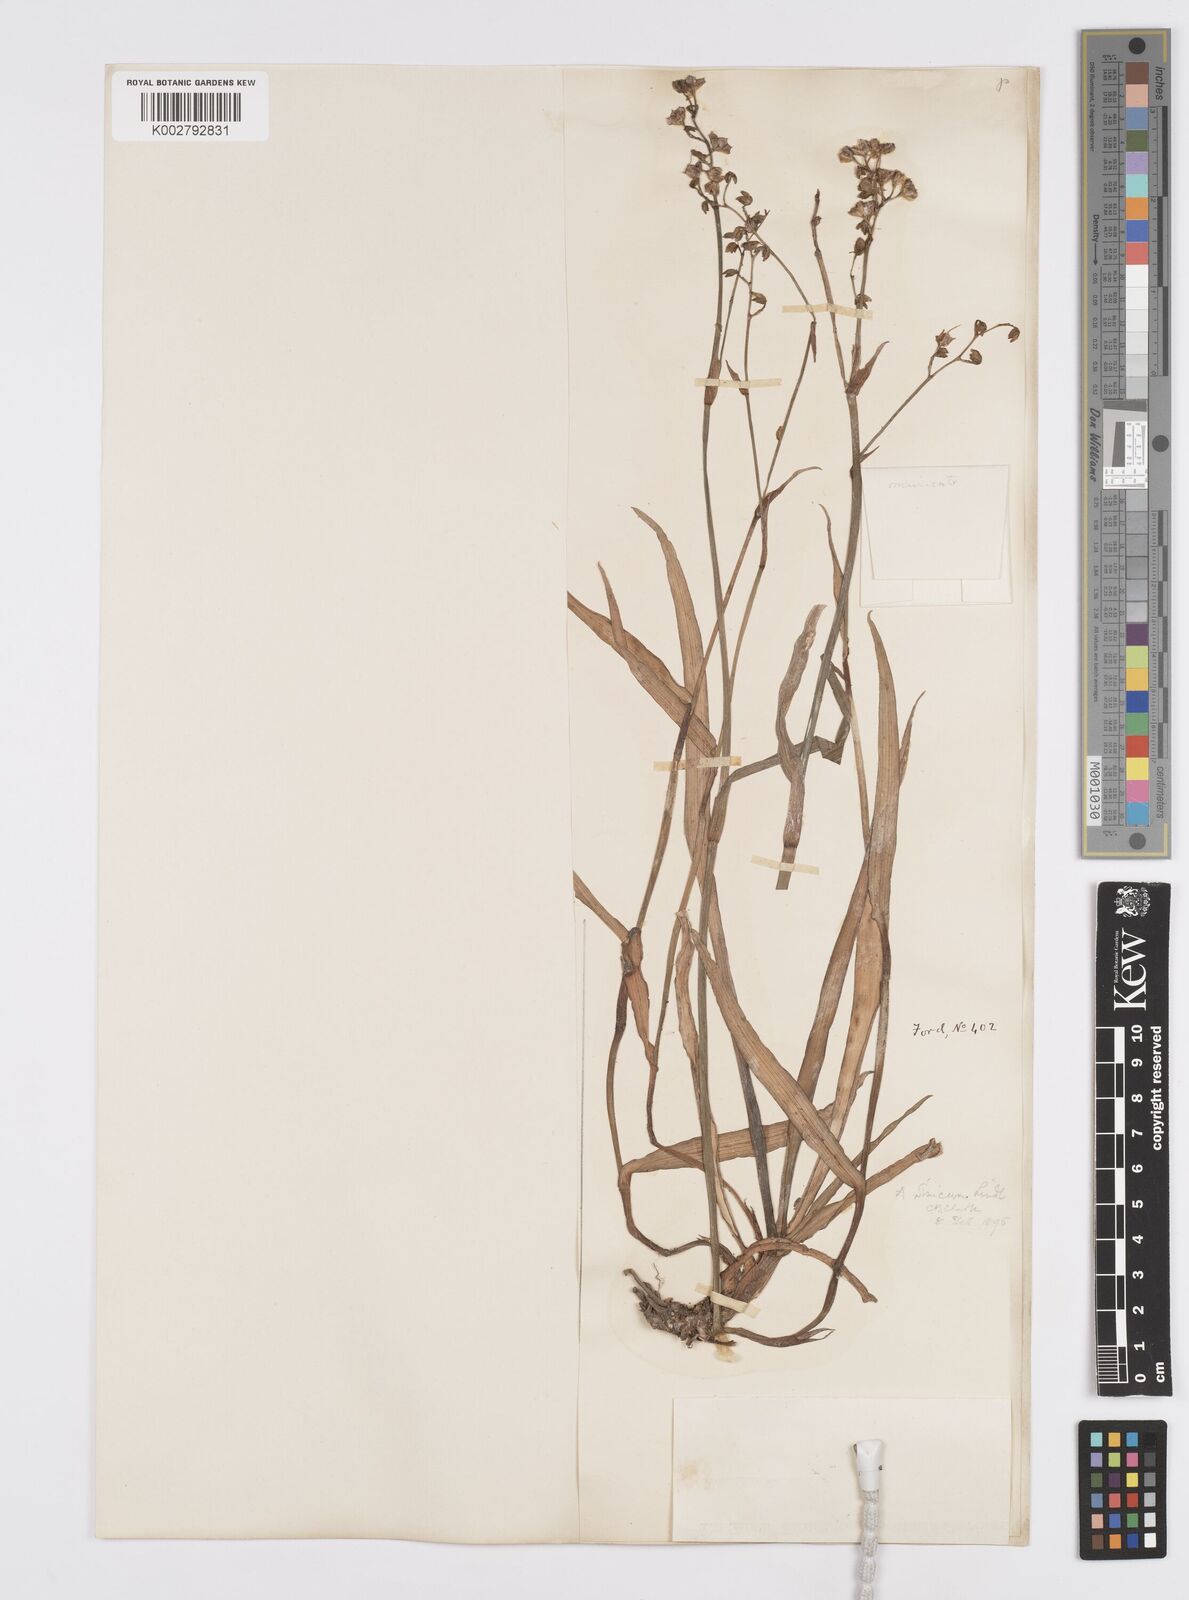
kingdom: Plantae
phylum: Tracheophyta
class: Liliopsida
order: Commelinales
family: Commelinaceae
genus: Murdannia
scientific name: Murdannia
